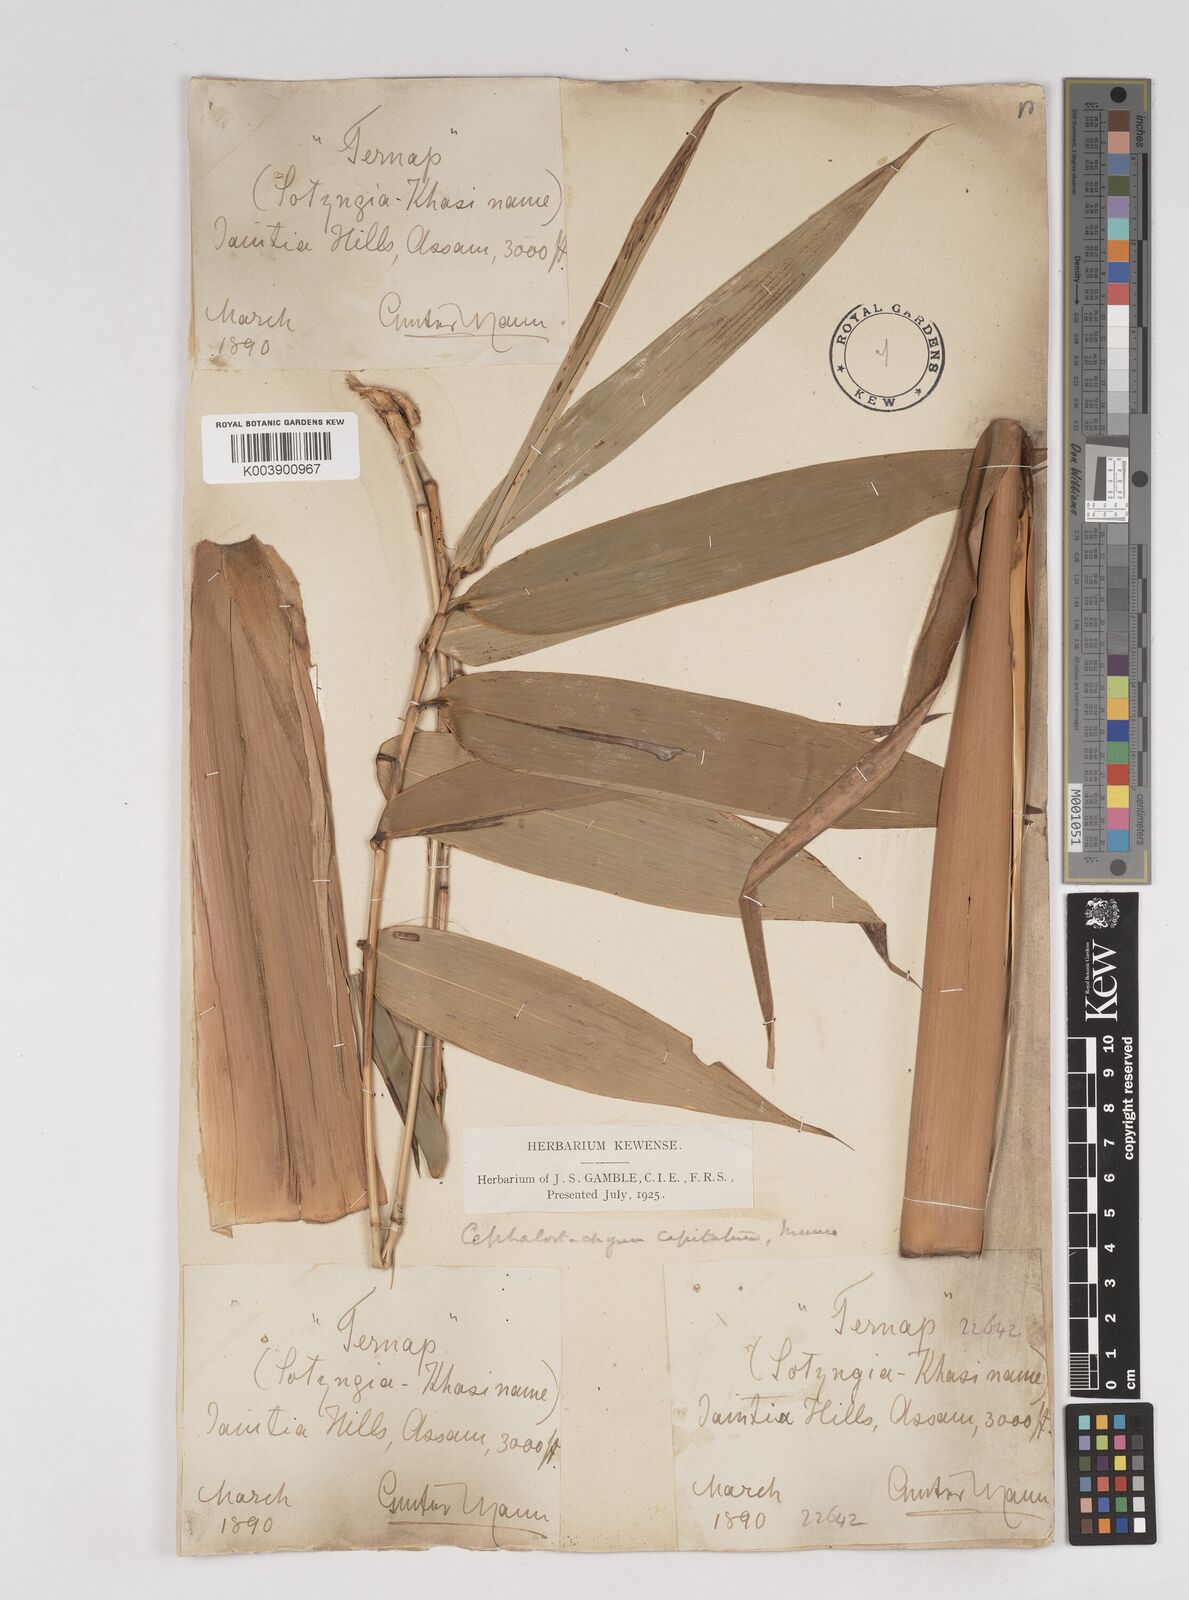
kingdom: Plantae
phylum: Tracheophyta
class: Liliopsida
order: Poales
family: Poaceae
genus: Cephalostachyum
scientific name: Cephalostachyum capitatum
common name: Hollow bamboo
